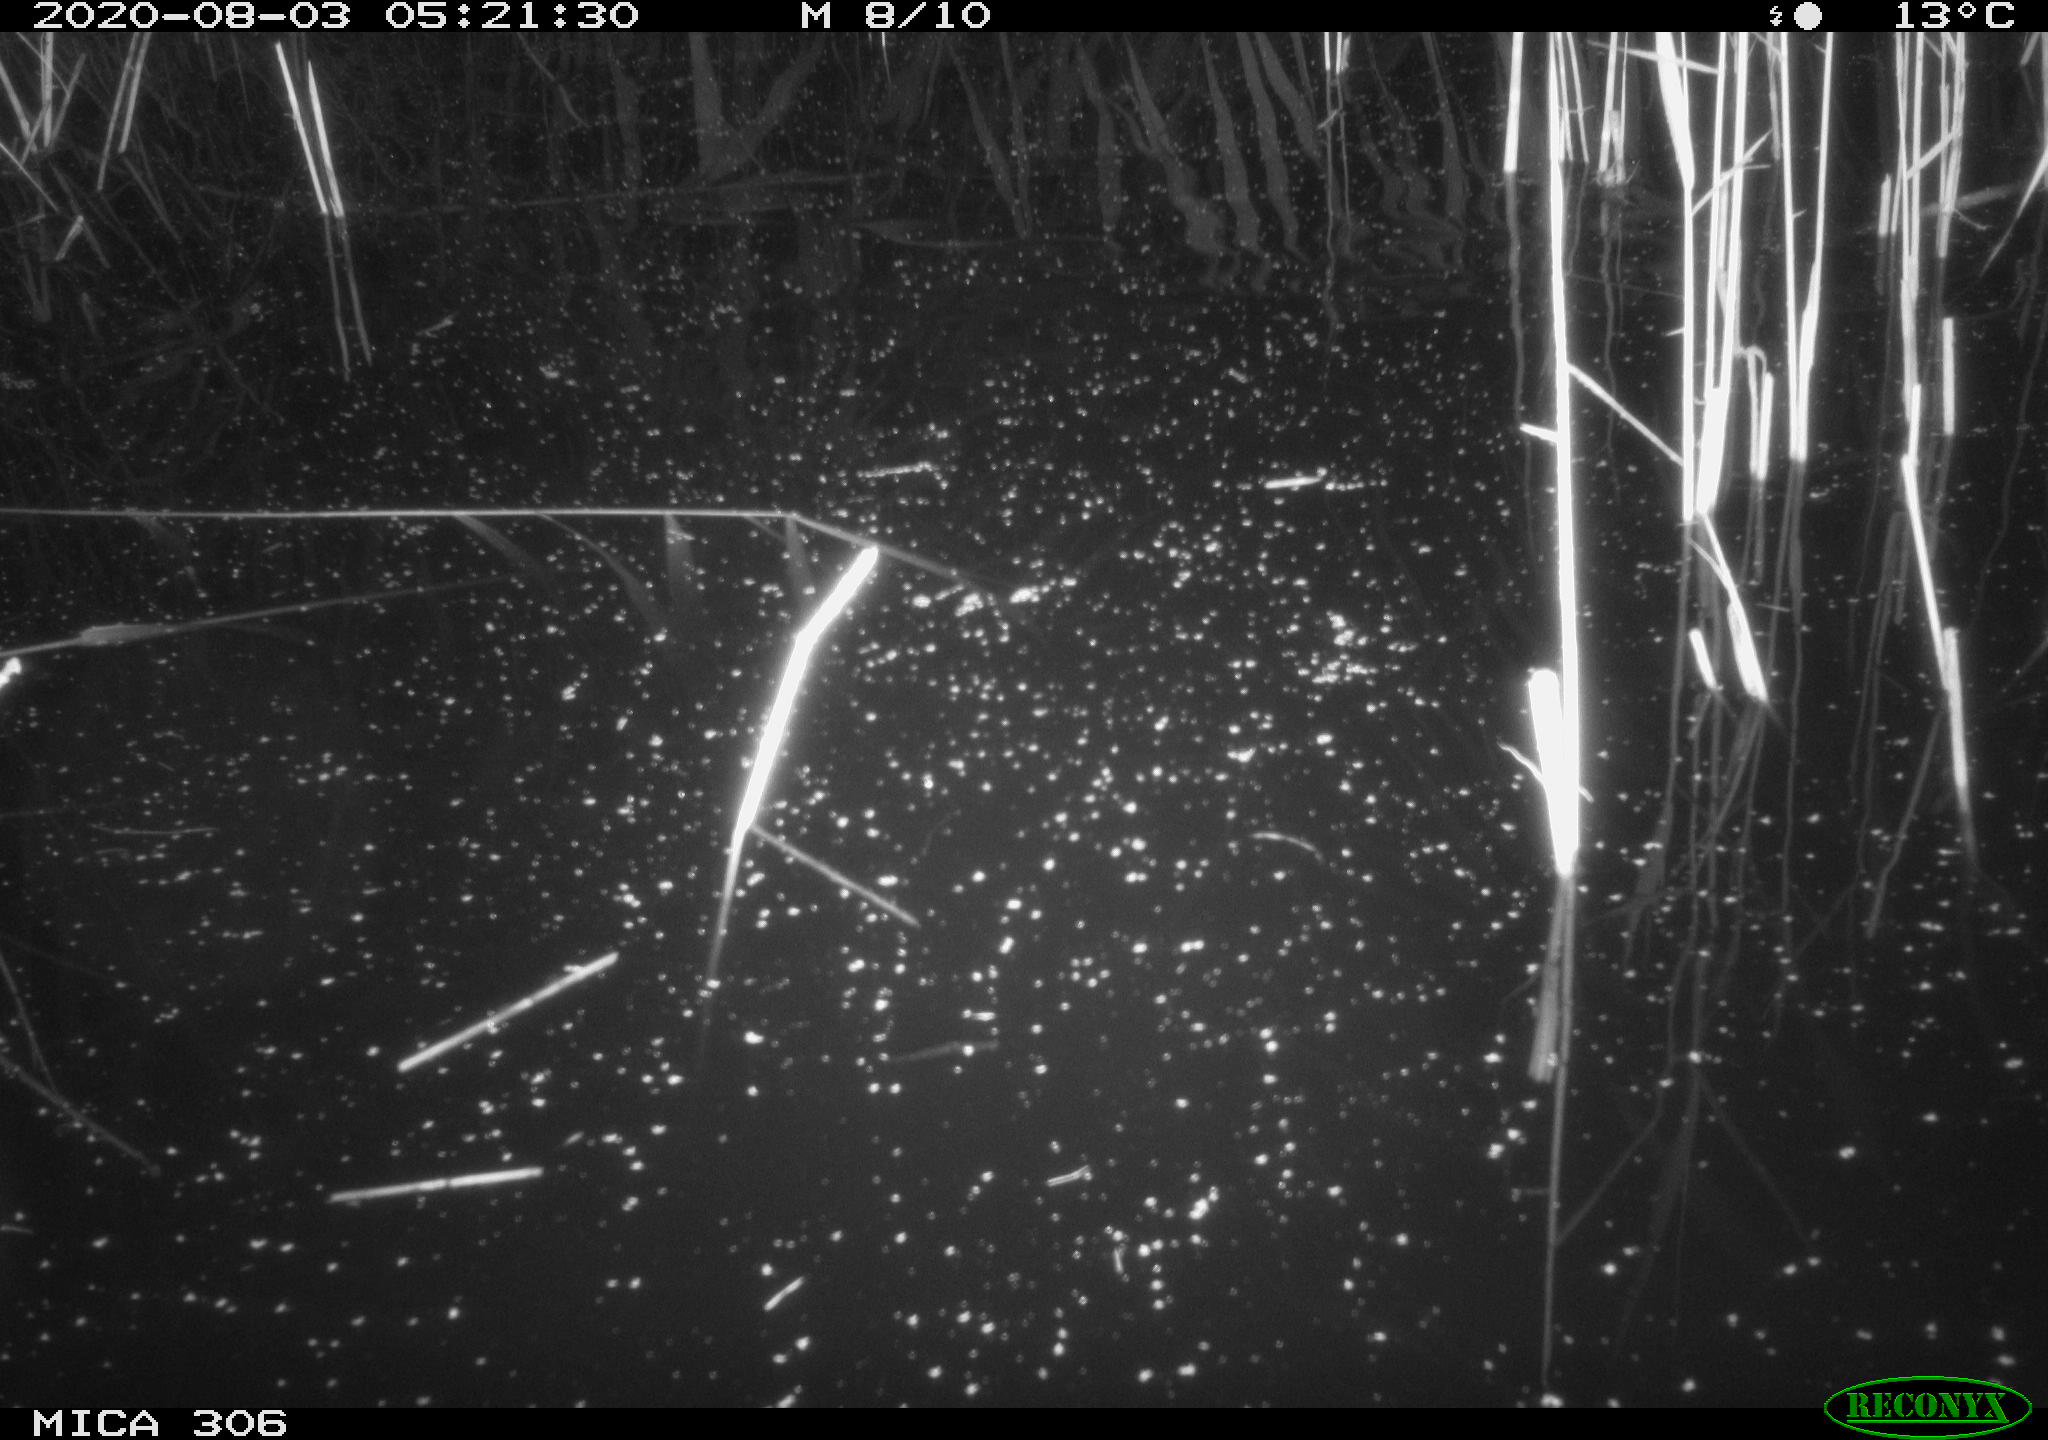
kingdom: Animalia
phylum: Chordata
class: Mammalia
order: Rodentia
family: Muridae
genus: Rattus
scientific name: Rattus norvegicus
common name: Brown rat
